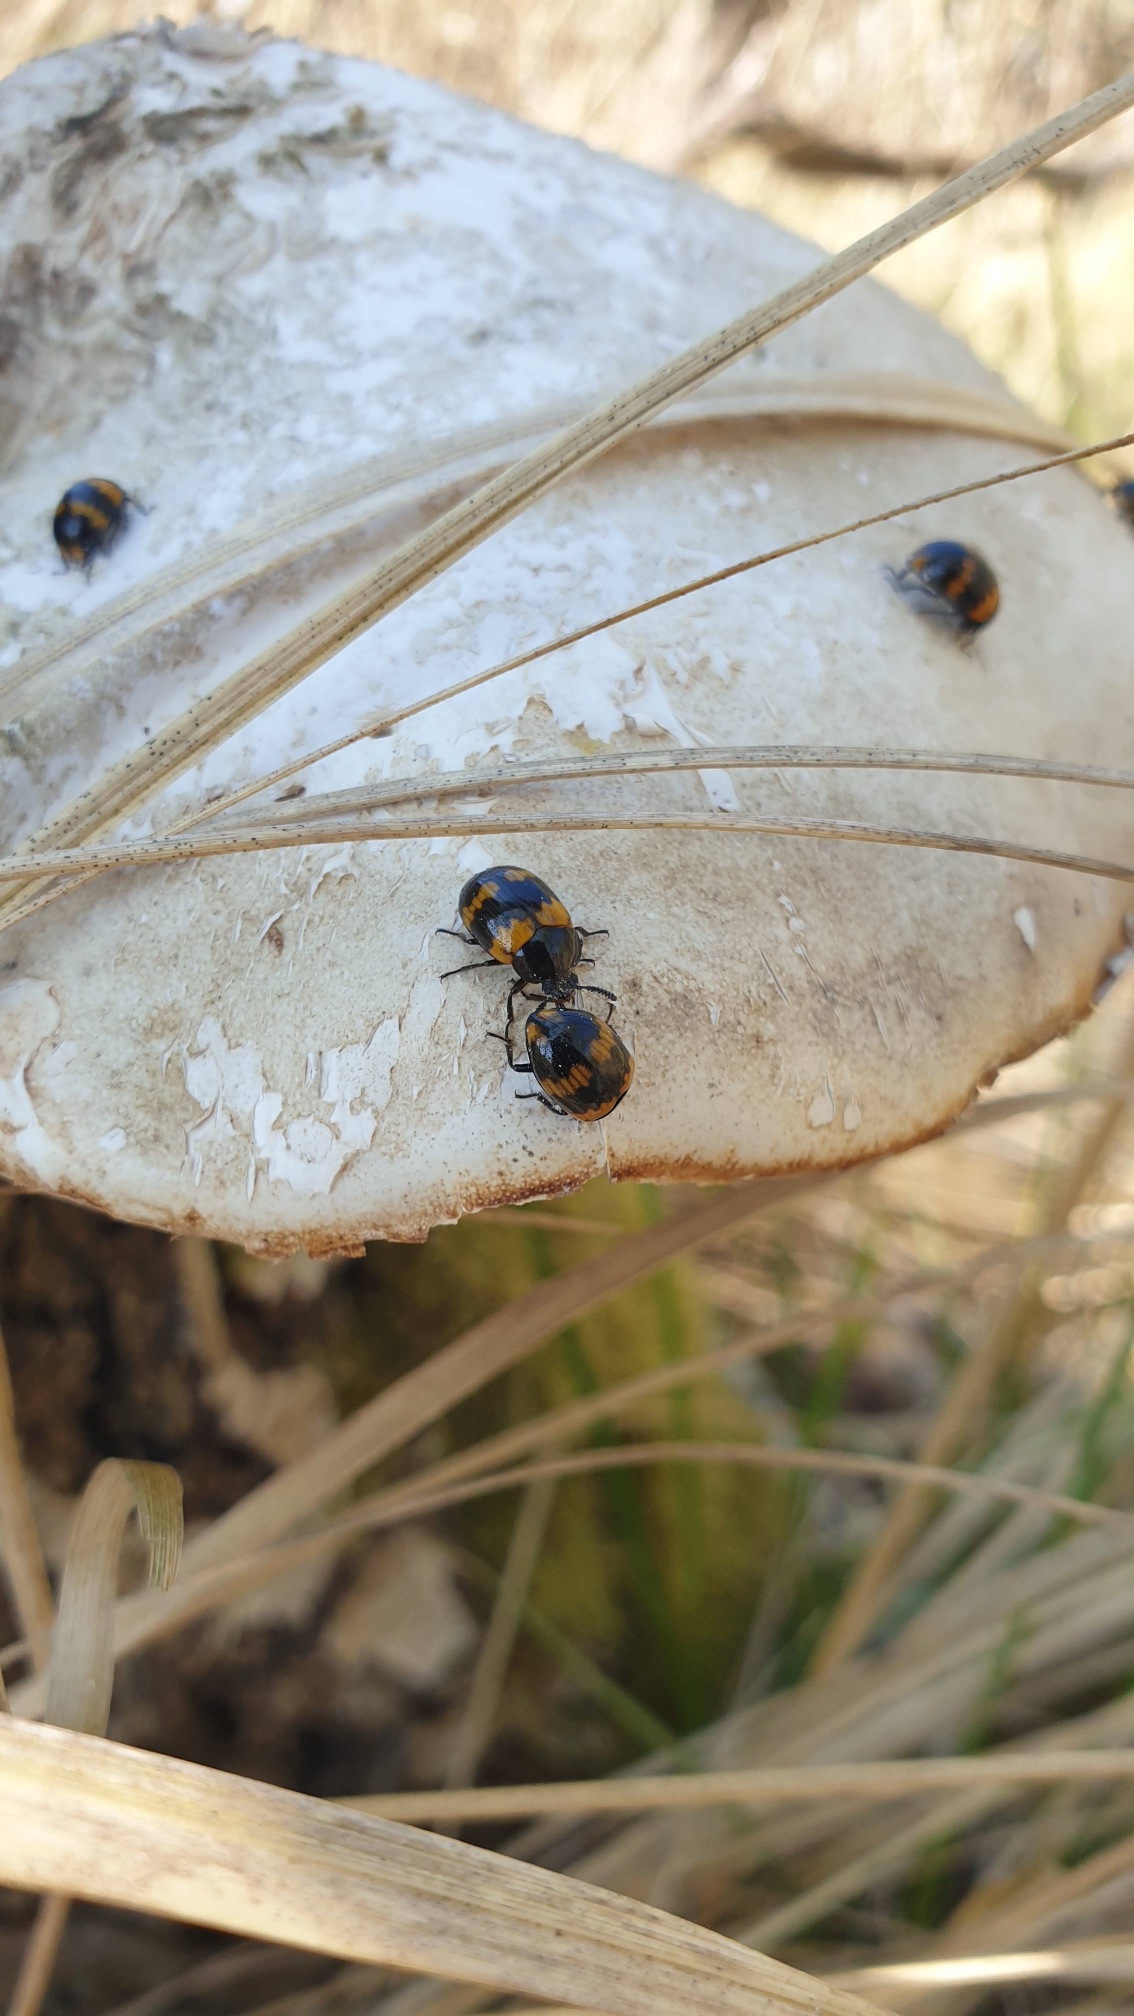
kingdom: Animalia
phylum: Arthropoda
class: Insecta
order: Coleoptera
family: Tenebrionidae
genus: Diaperis
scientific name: Diaperis boleti
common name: Tigerskyggebille
